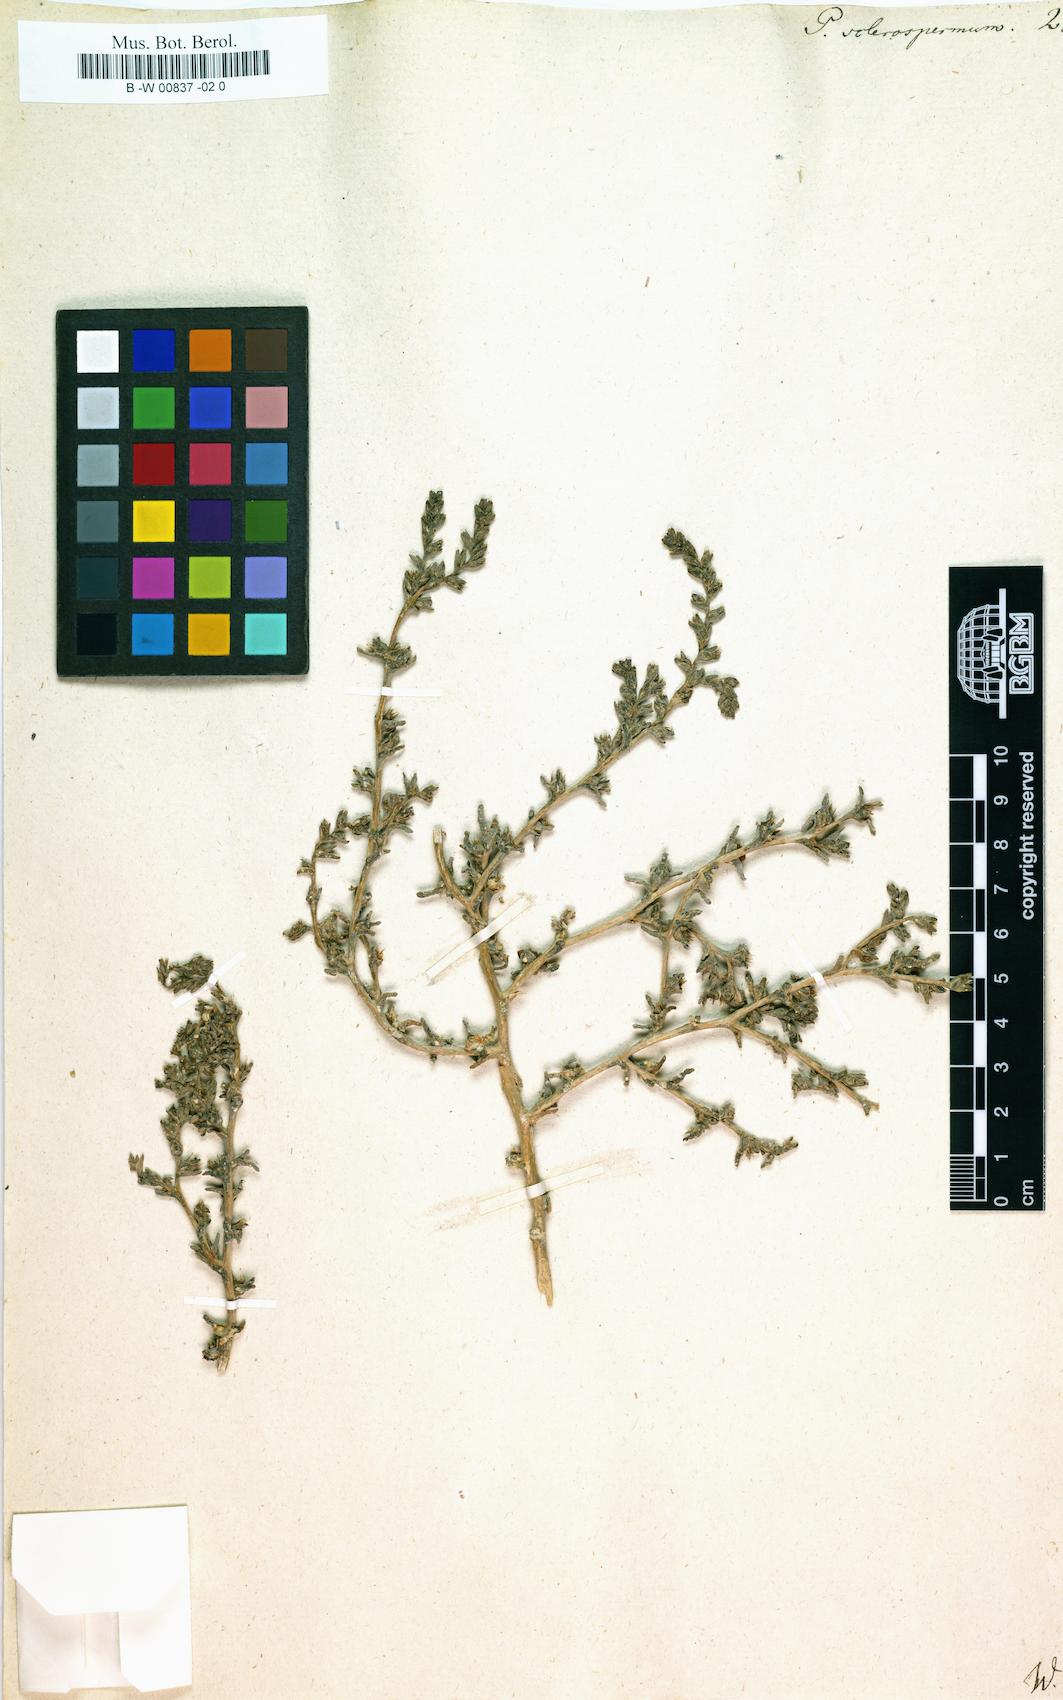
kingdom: Plantae
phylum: Tracheophyta
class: Magnoliopsida
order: Caryophyllales
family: Amaranthaceae
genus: Halimocnemis
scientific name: Halimocnemis sclerosperma
